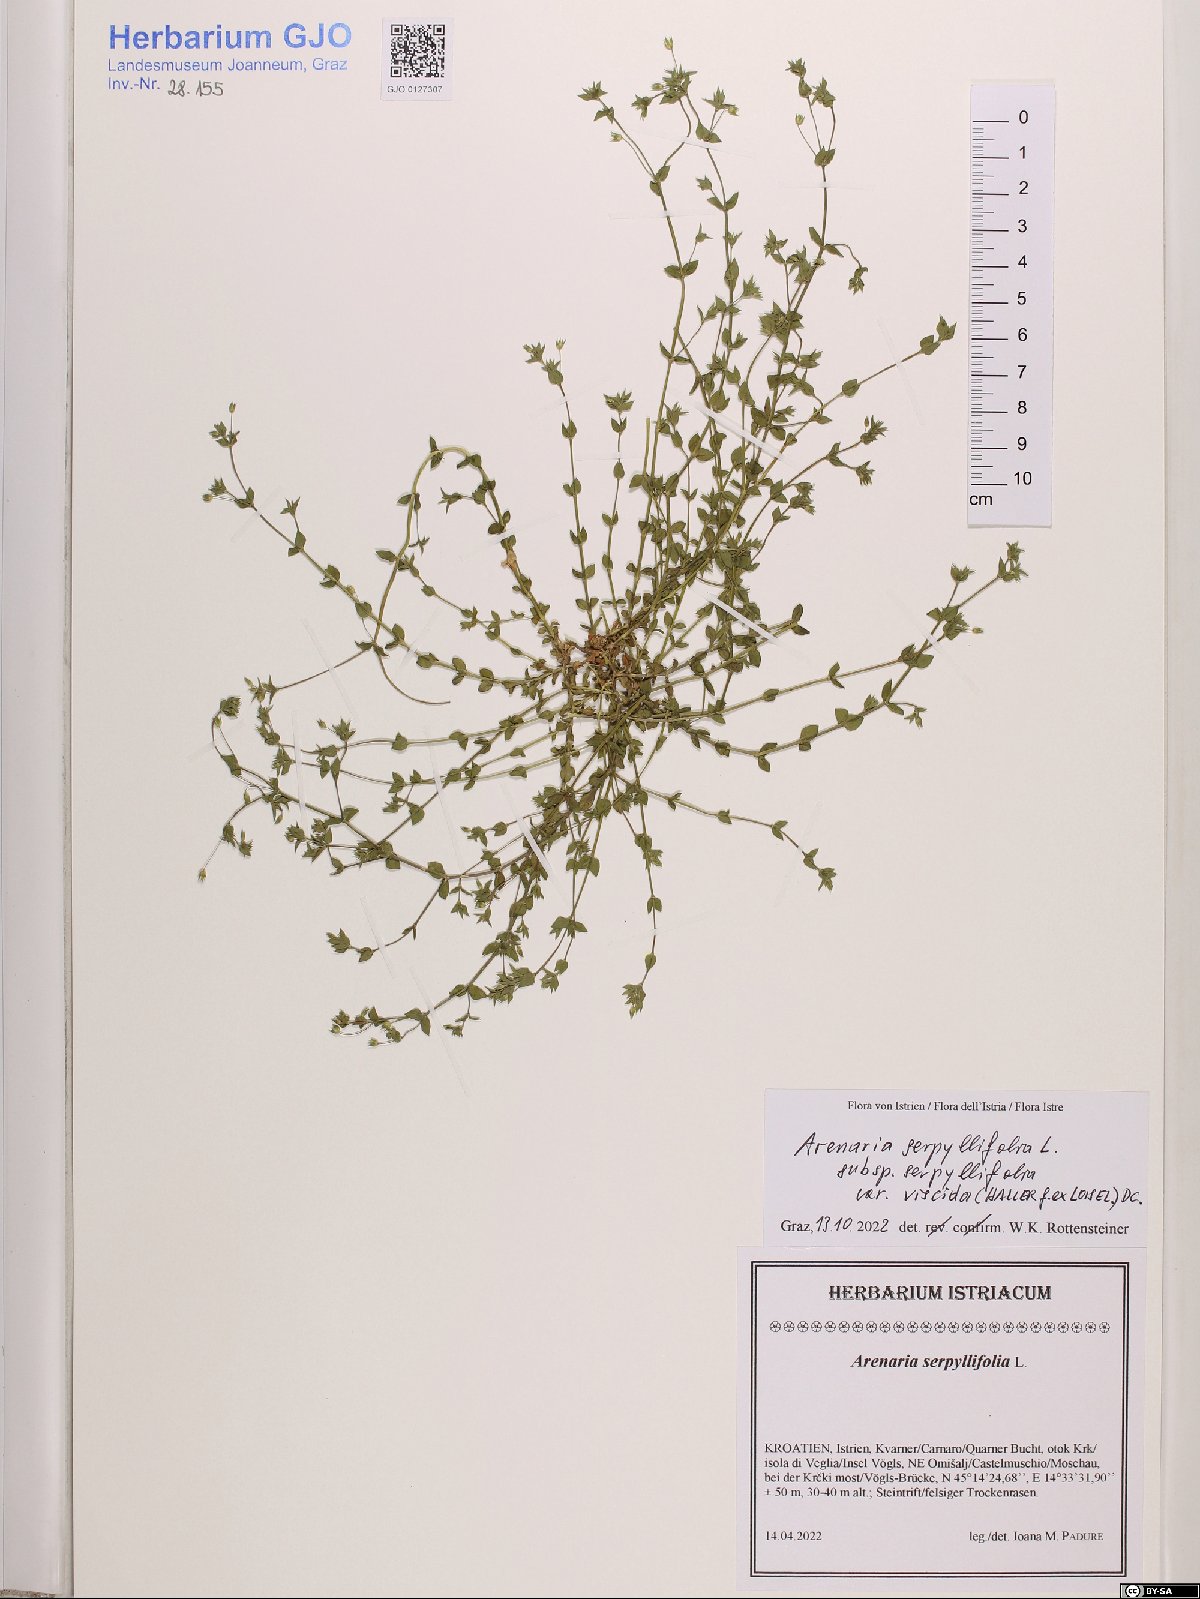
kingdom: Plantae
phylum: Tracheophyta
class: Magnoliopsida
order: Caryophyllales
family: Caryophyllaceae
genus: Arenaria
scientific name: Arenaria serpyllifolia
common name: Thyme-leaved sandwort
